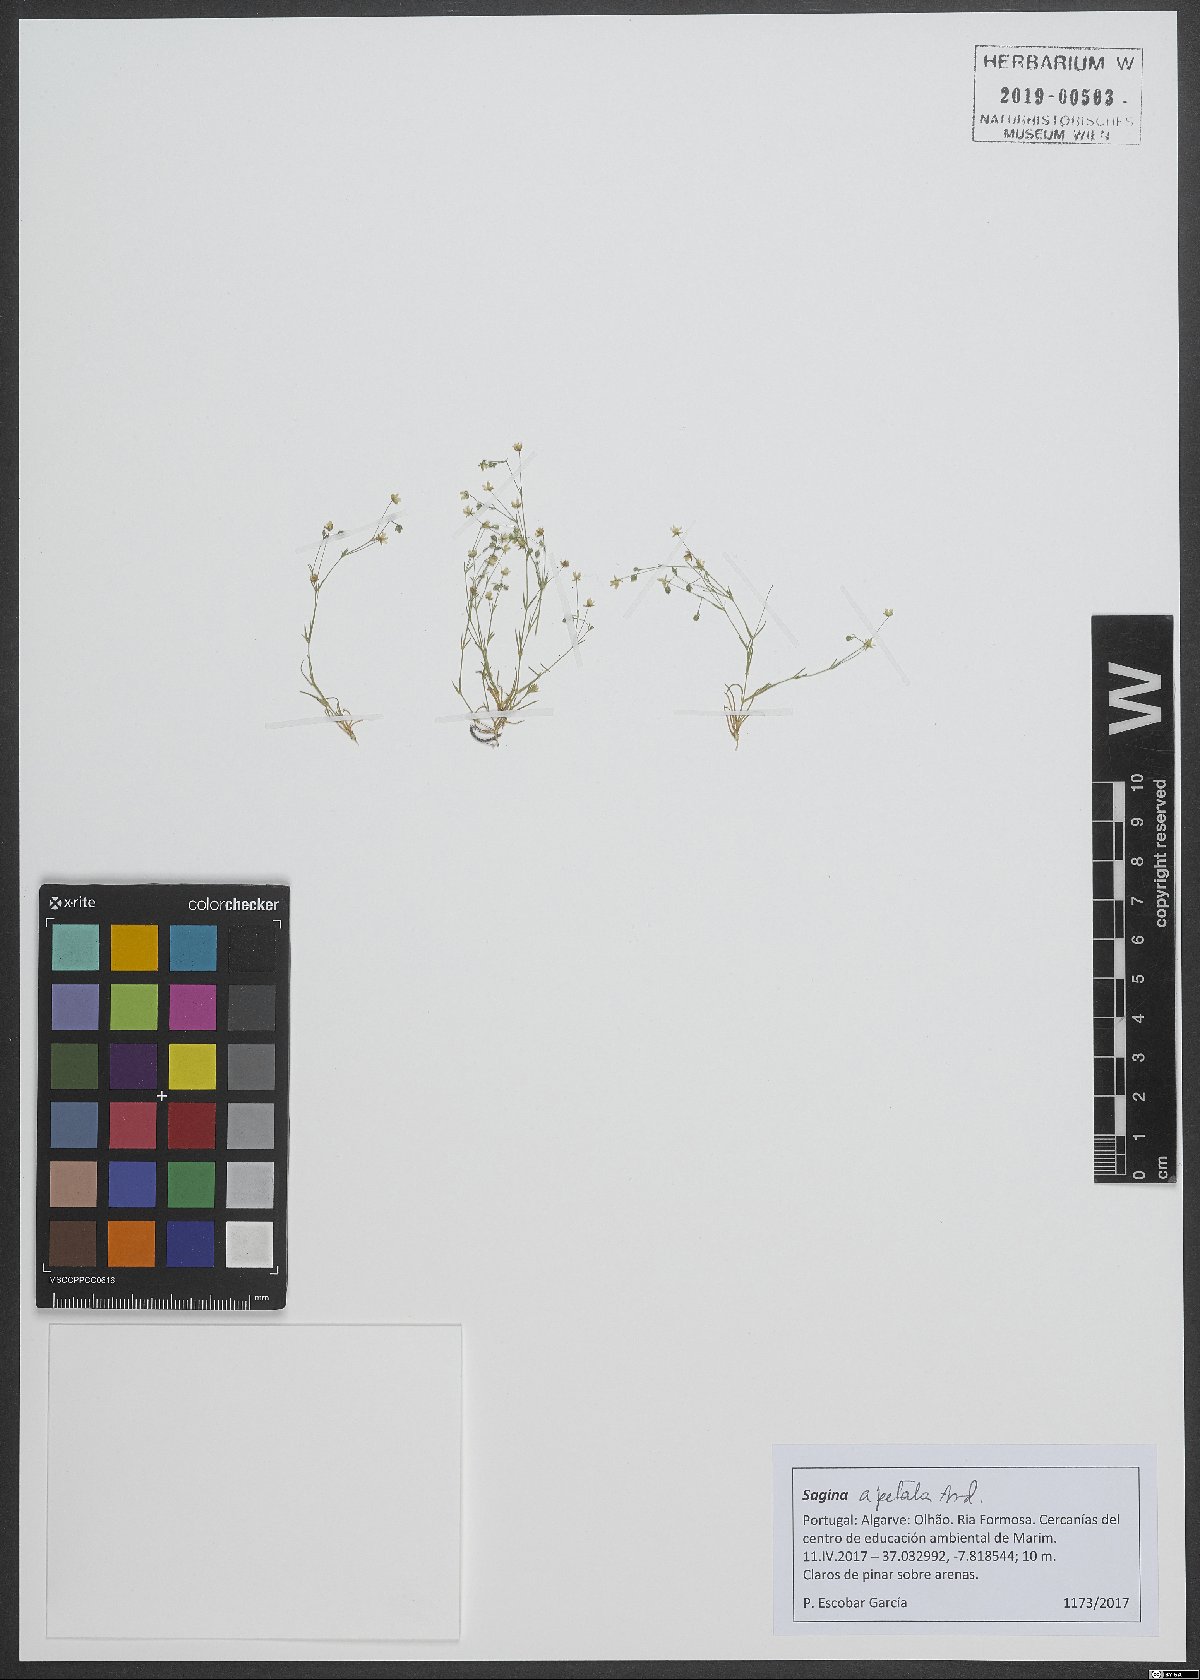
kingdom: Plantae
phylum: Tracheophyta
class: Magnoliopsida
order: Caryophyllales
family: Caryophyllaceae
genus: Sagina
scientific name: Sagina apetala
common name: Annual pearlwort
